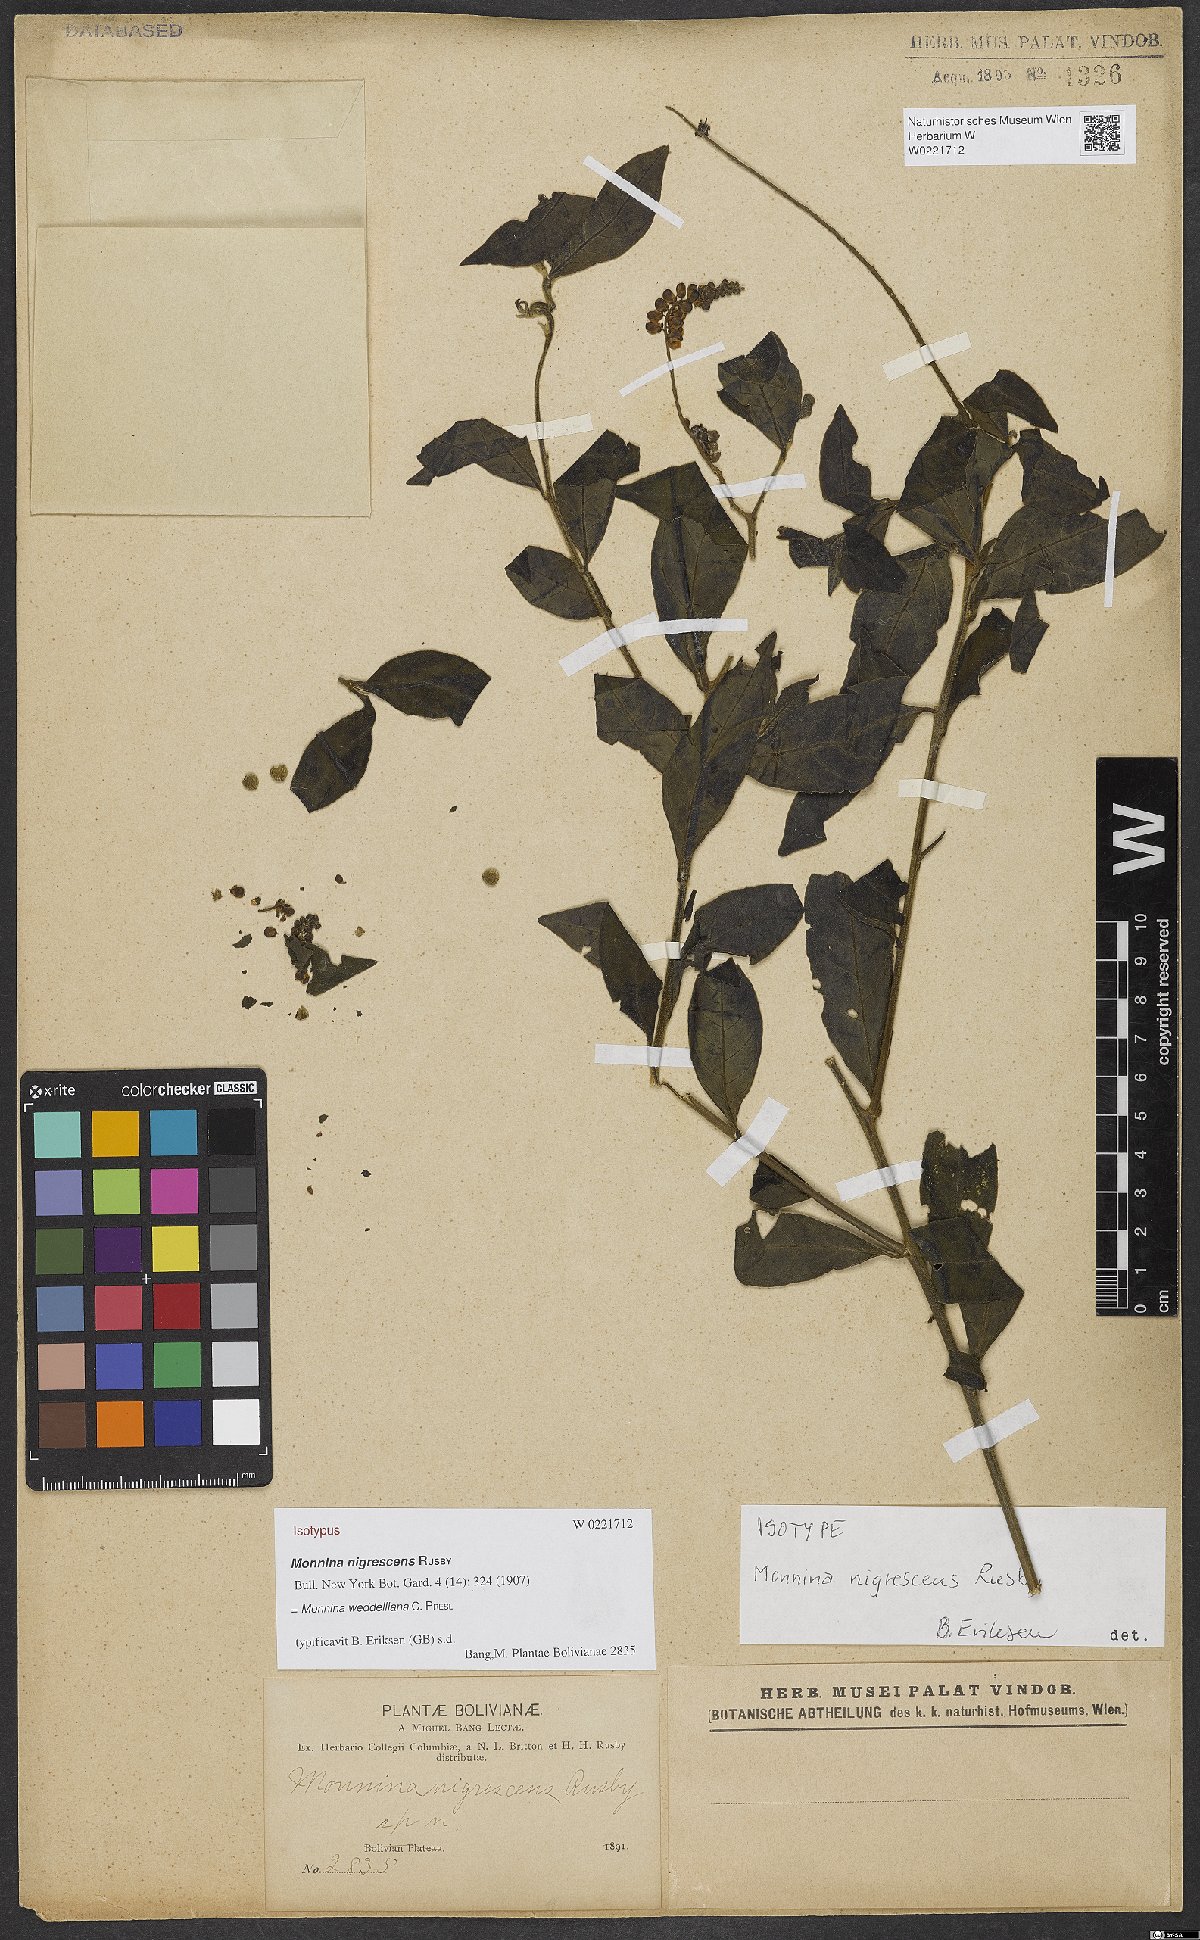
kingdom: Plantae
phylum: Tracheophyta
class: Magnoliopsida
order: Fabales
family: Polygalaceae
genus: Monnina
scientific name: Monnina weddelliana
